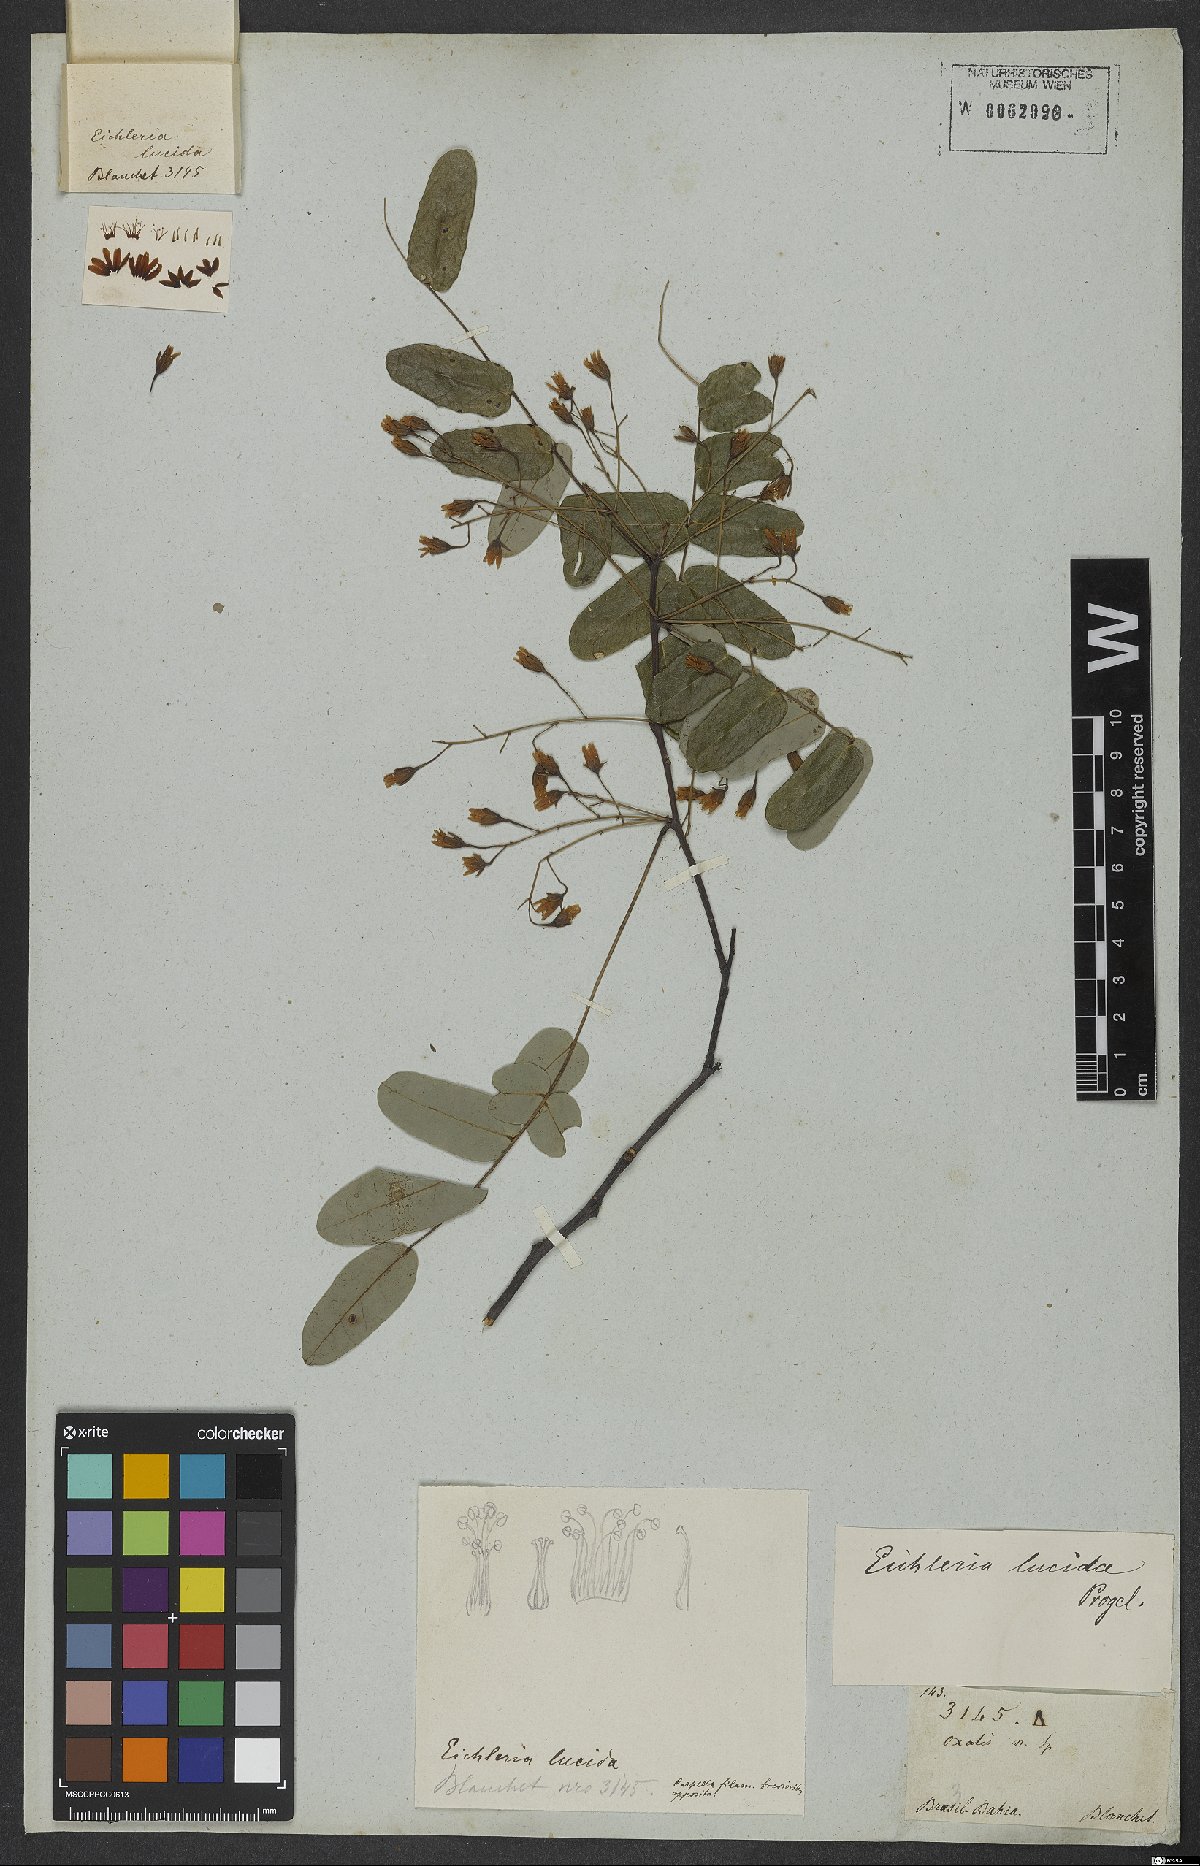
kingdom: Plantae
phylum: Tracheophyta
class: Magnoliopsida
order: Oxalidales
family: Connaraceae
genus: Rourea
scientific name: Rourea discolor
